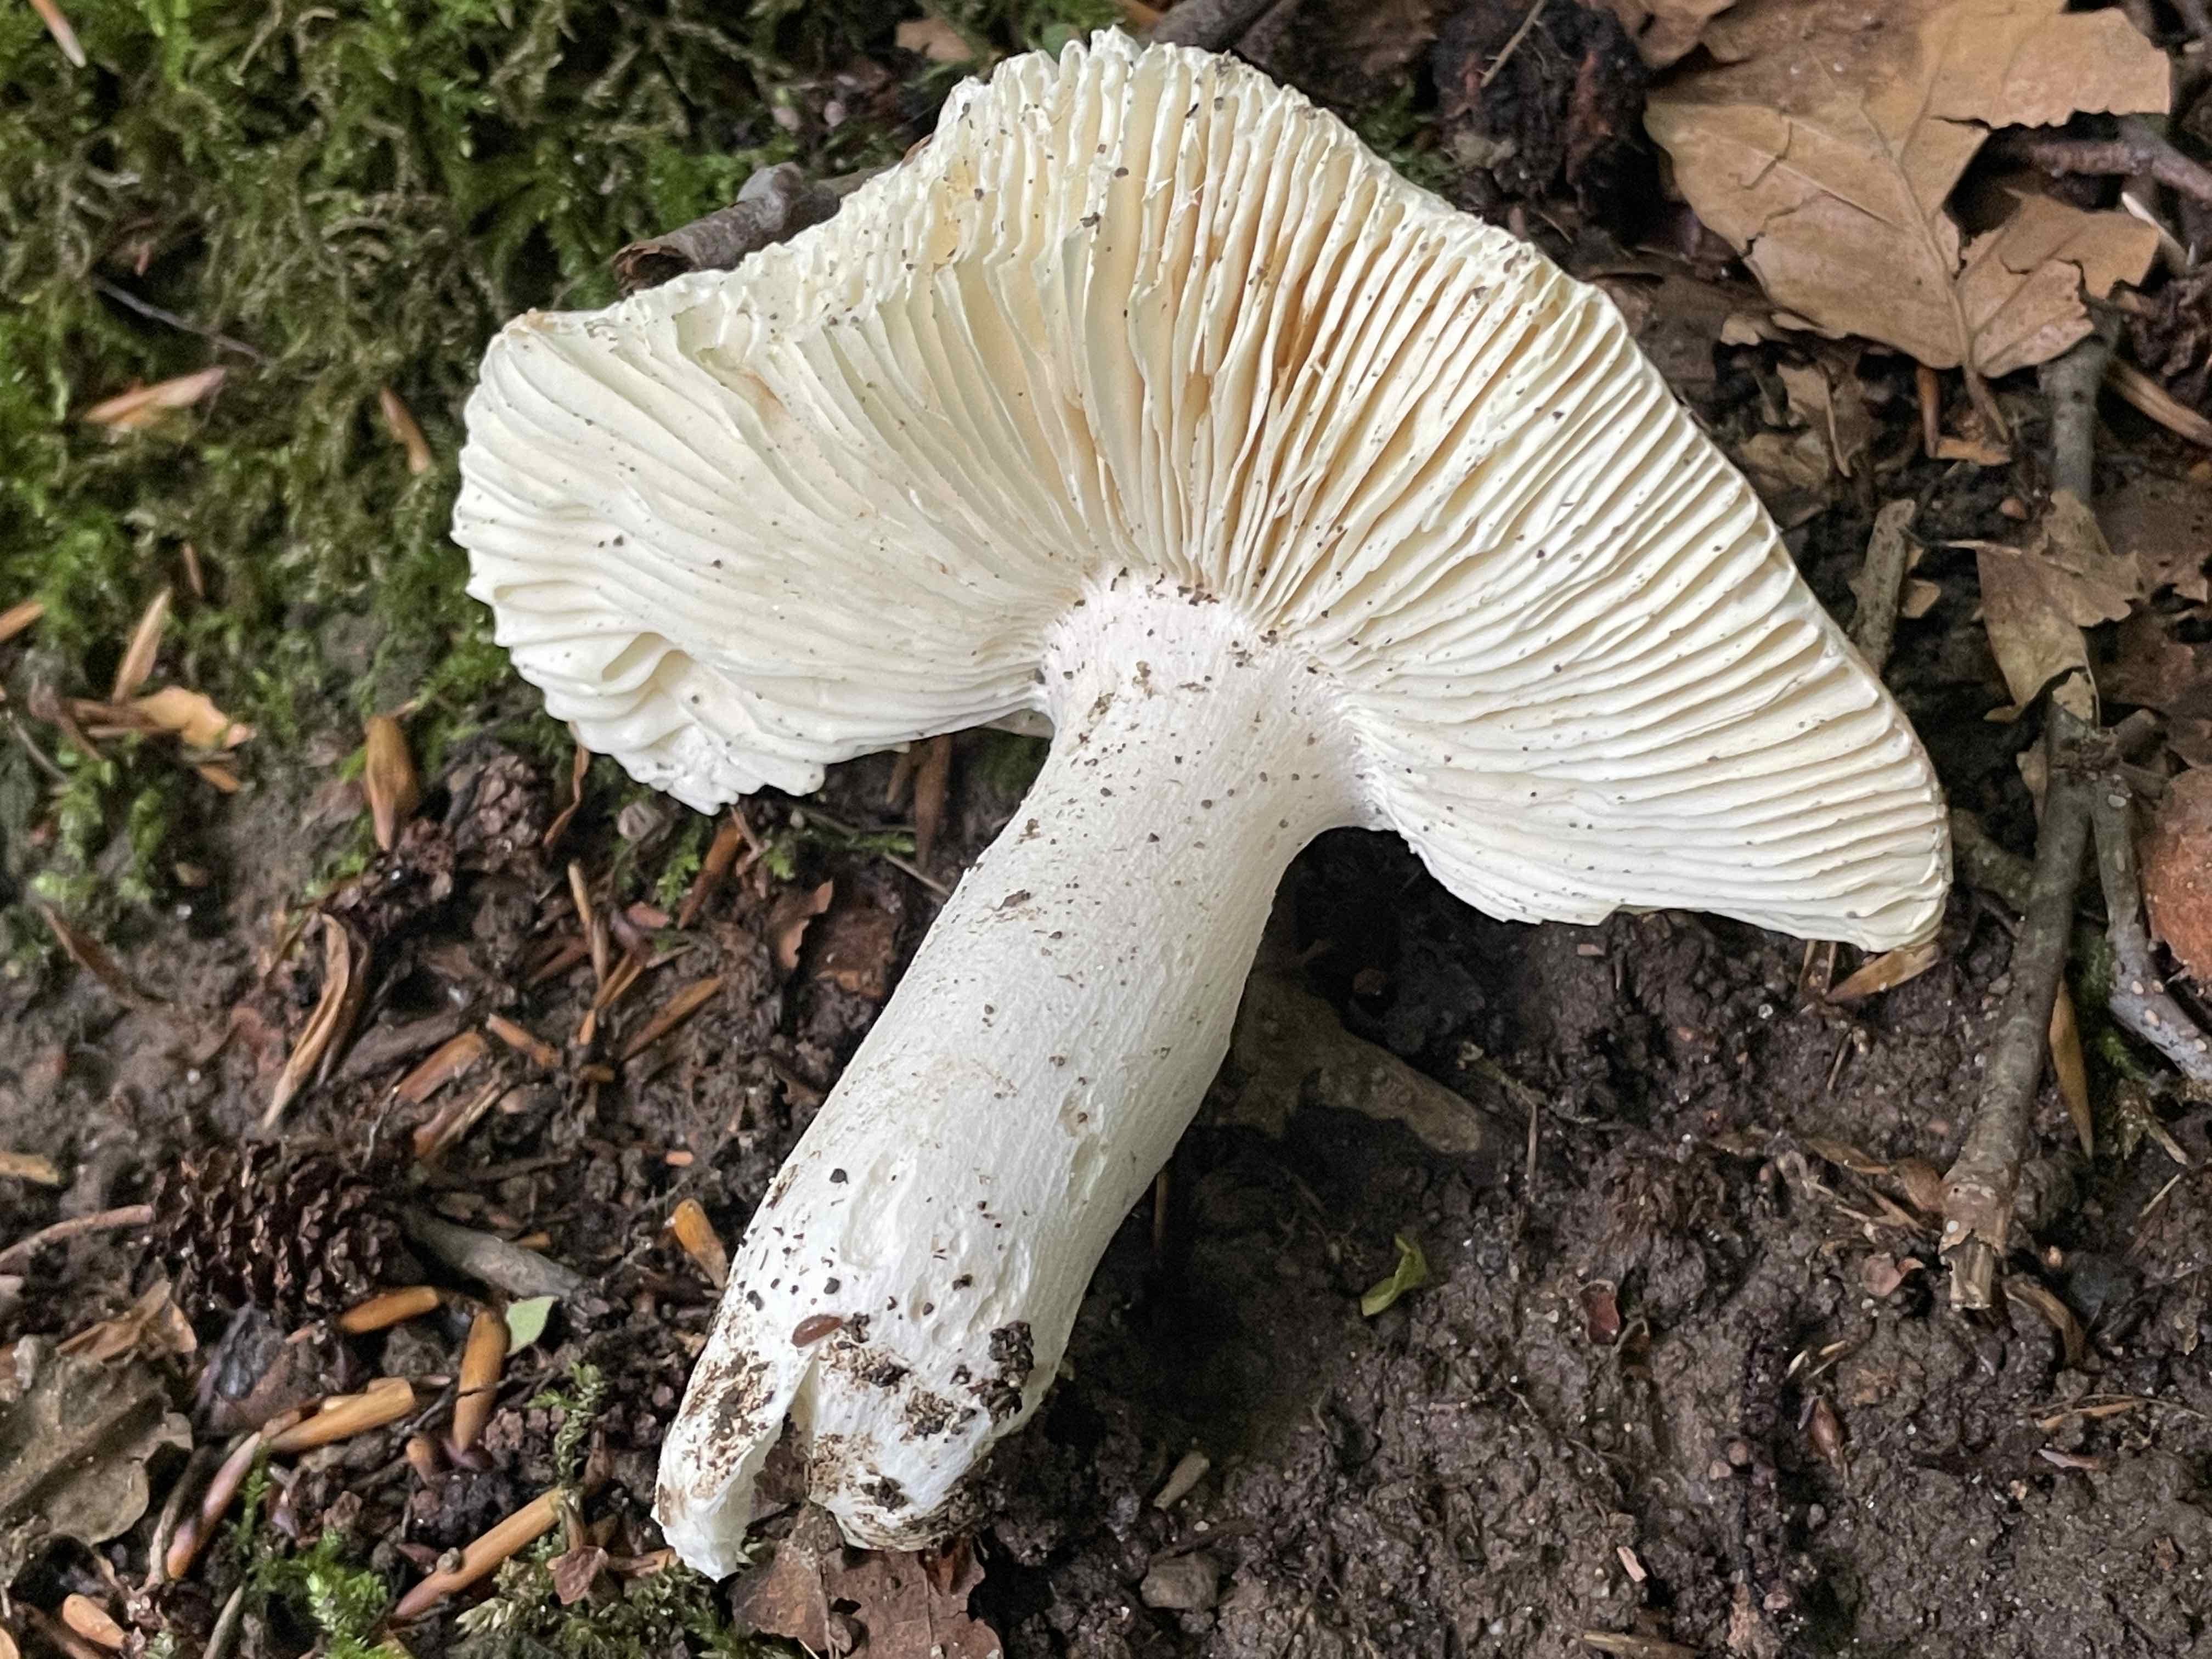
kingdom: Fungi
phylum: Basidiomycota
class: Agaricomycetes
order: Russulales
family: Russulaceae
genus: Russula
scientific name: Russula aurora
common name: rosa skørhat
